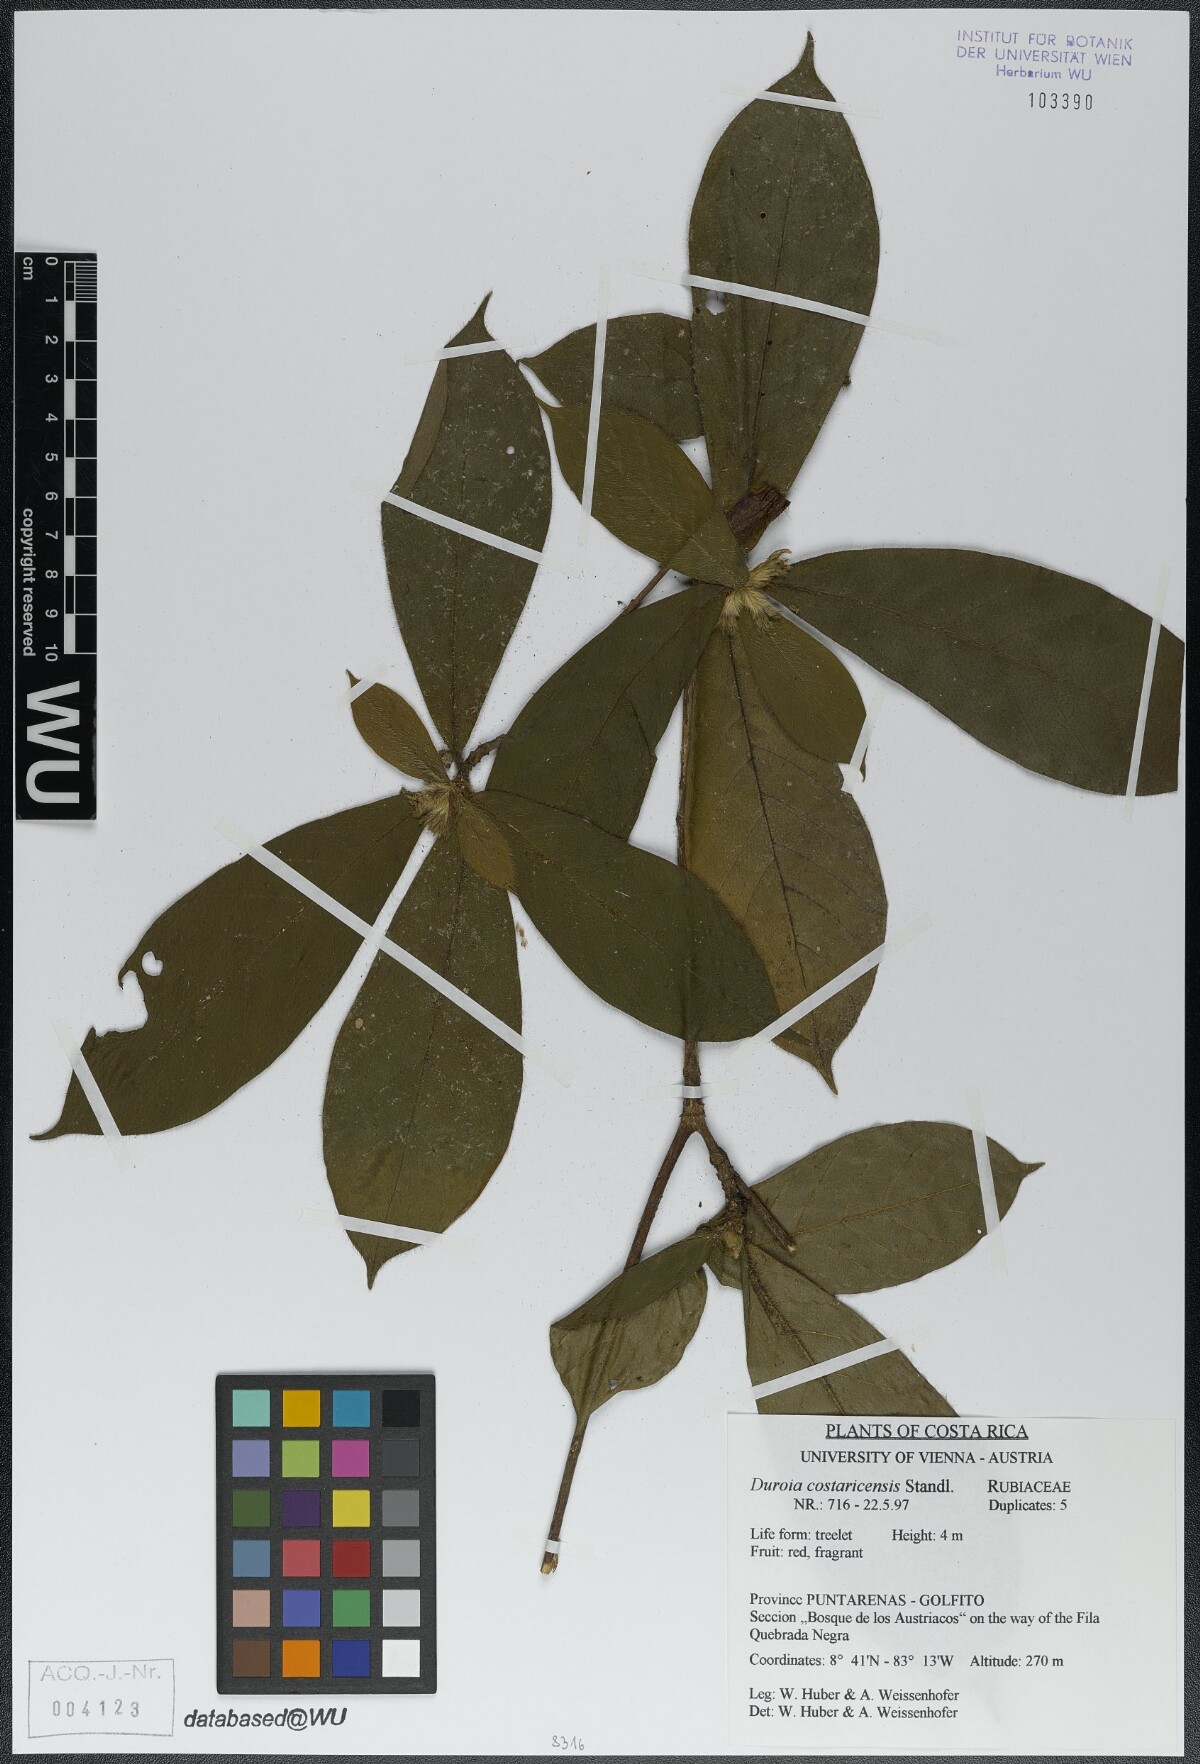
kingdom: Plantae
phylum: Tracheophyta
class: Magnoliopsida
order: Gentianales
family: Rubiaceae
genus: Duroia
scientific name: Duroia costaricensis
